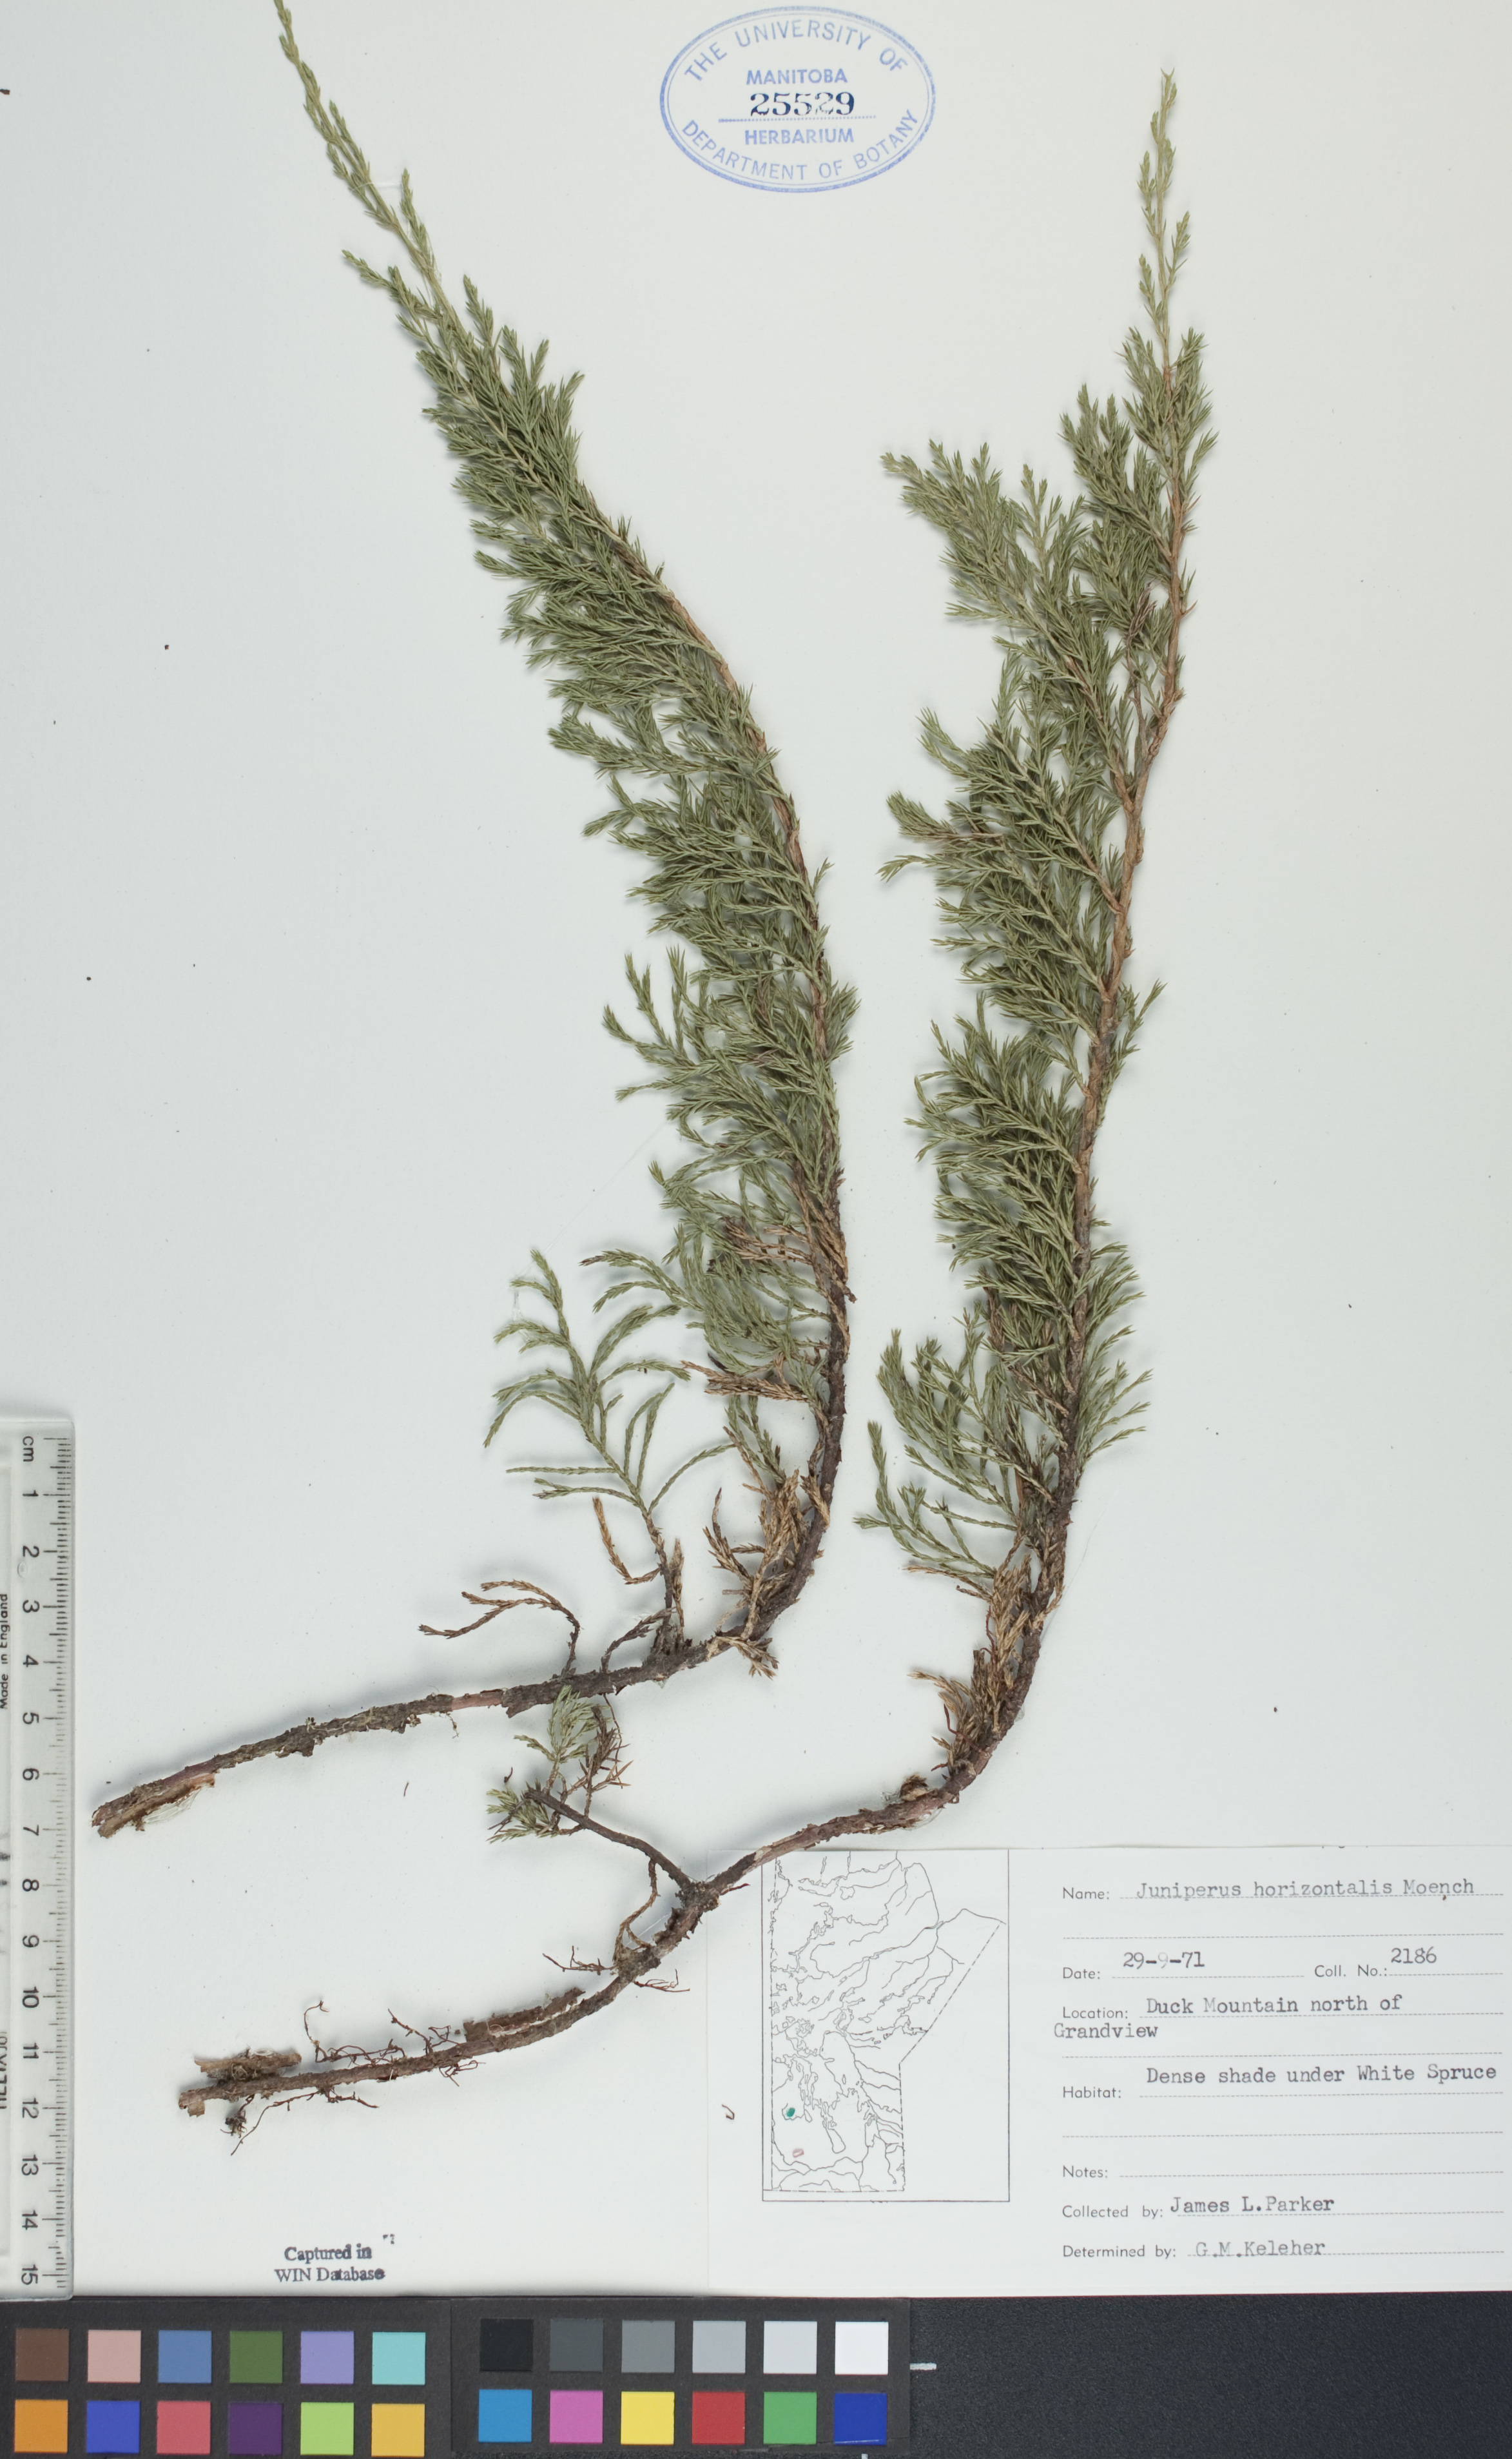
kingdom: Plantae
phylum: Tracheophyta
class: Pinopsida
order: Pinales
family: Cupressaceae
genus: Juniperus
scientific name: Juniperus horizontalis
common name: Creeping juniper
